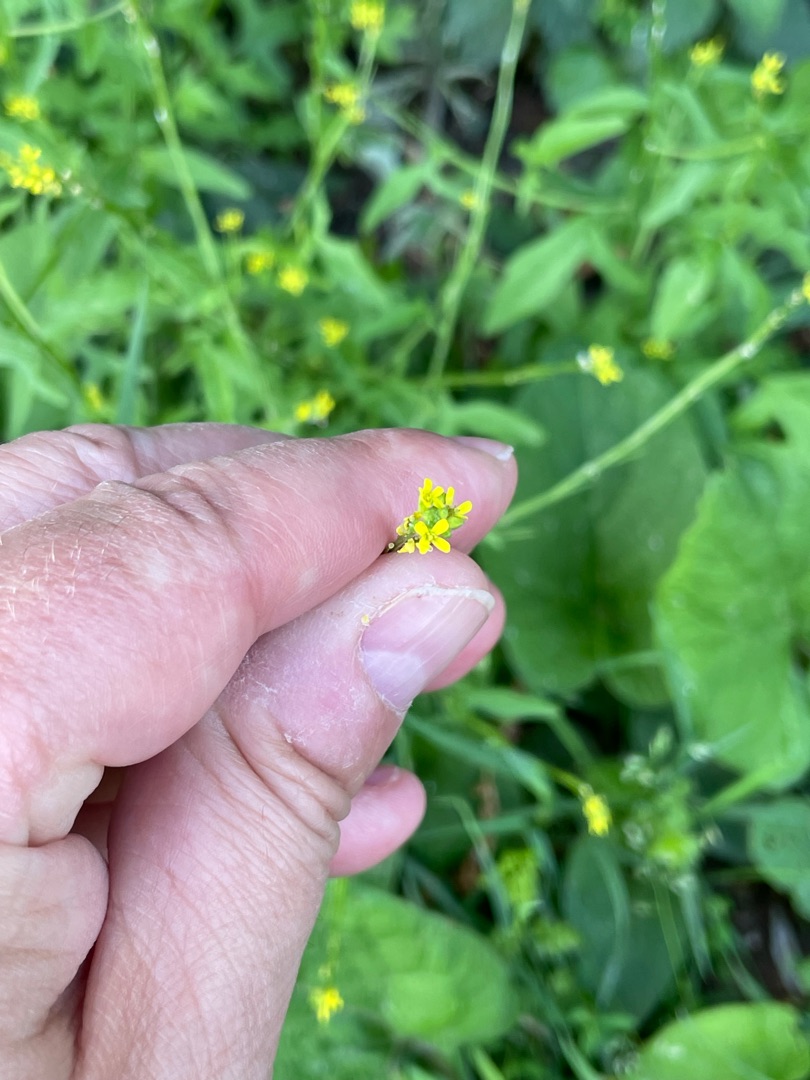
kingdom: Plantae
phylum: Tracheophyta
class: Magnoliopsida
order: Brassicales
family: Brassicaceae
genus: Sisymbrium
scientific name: Sisymbrium officinale
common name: Rank vejsennep
